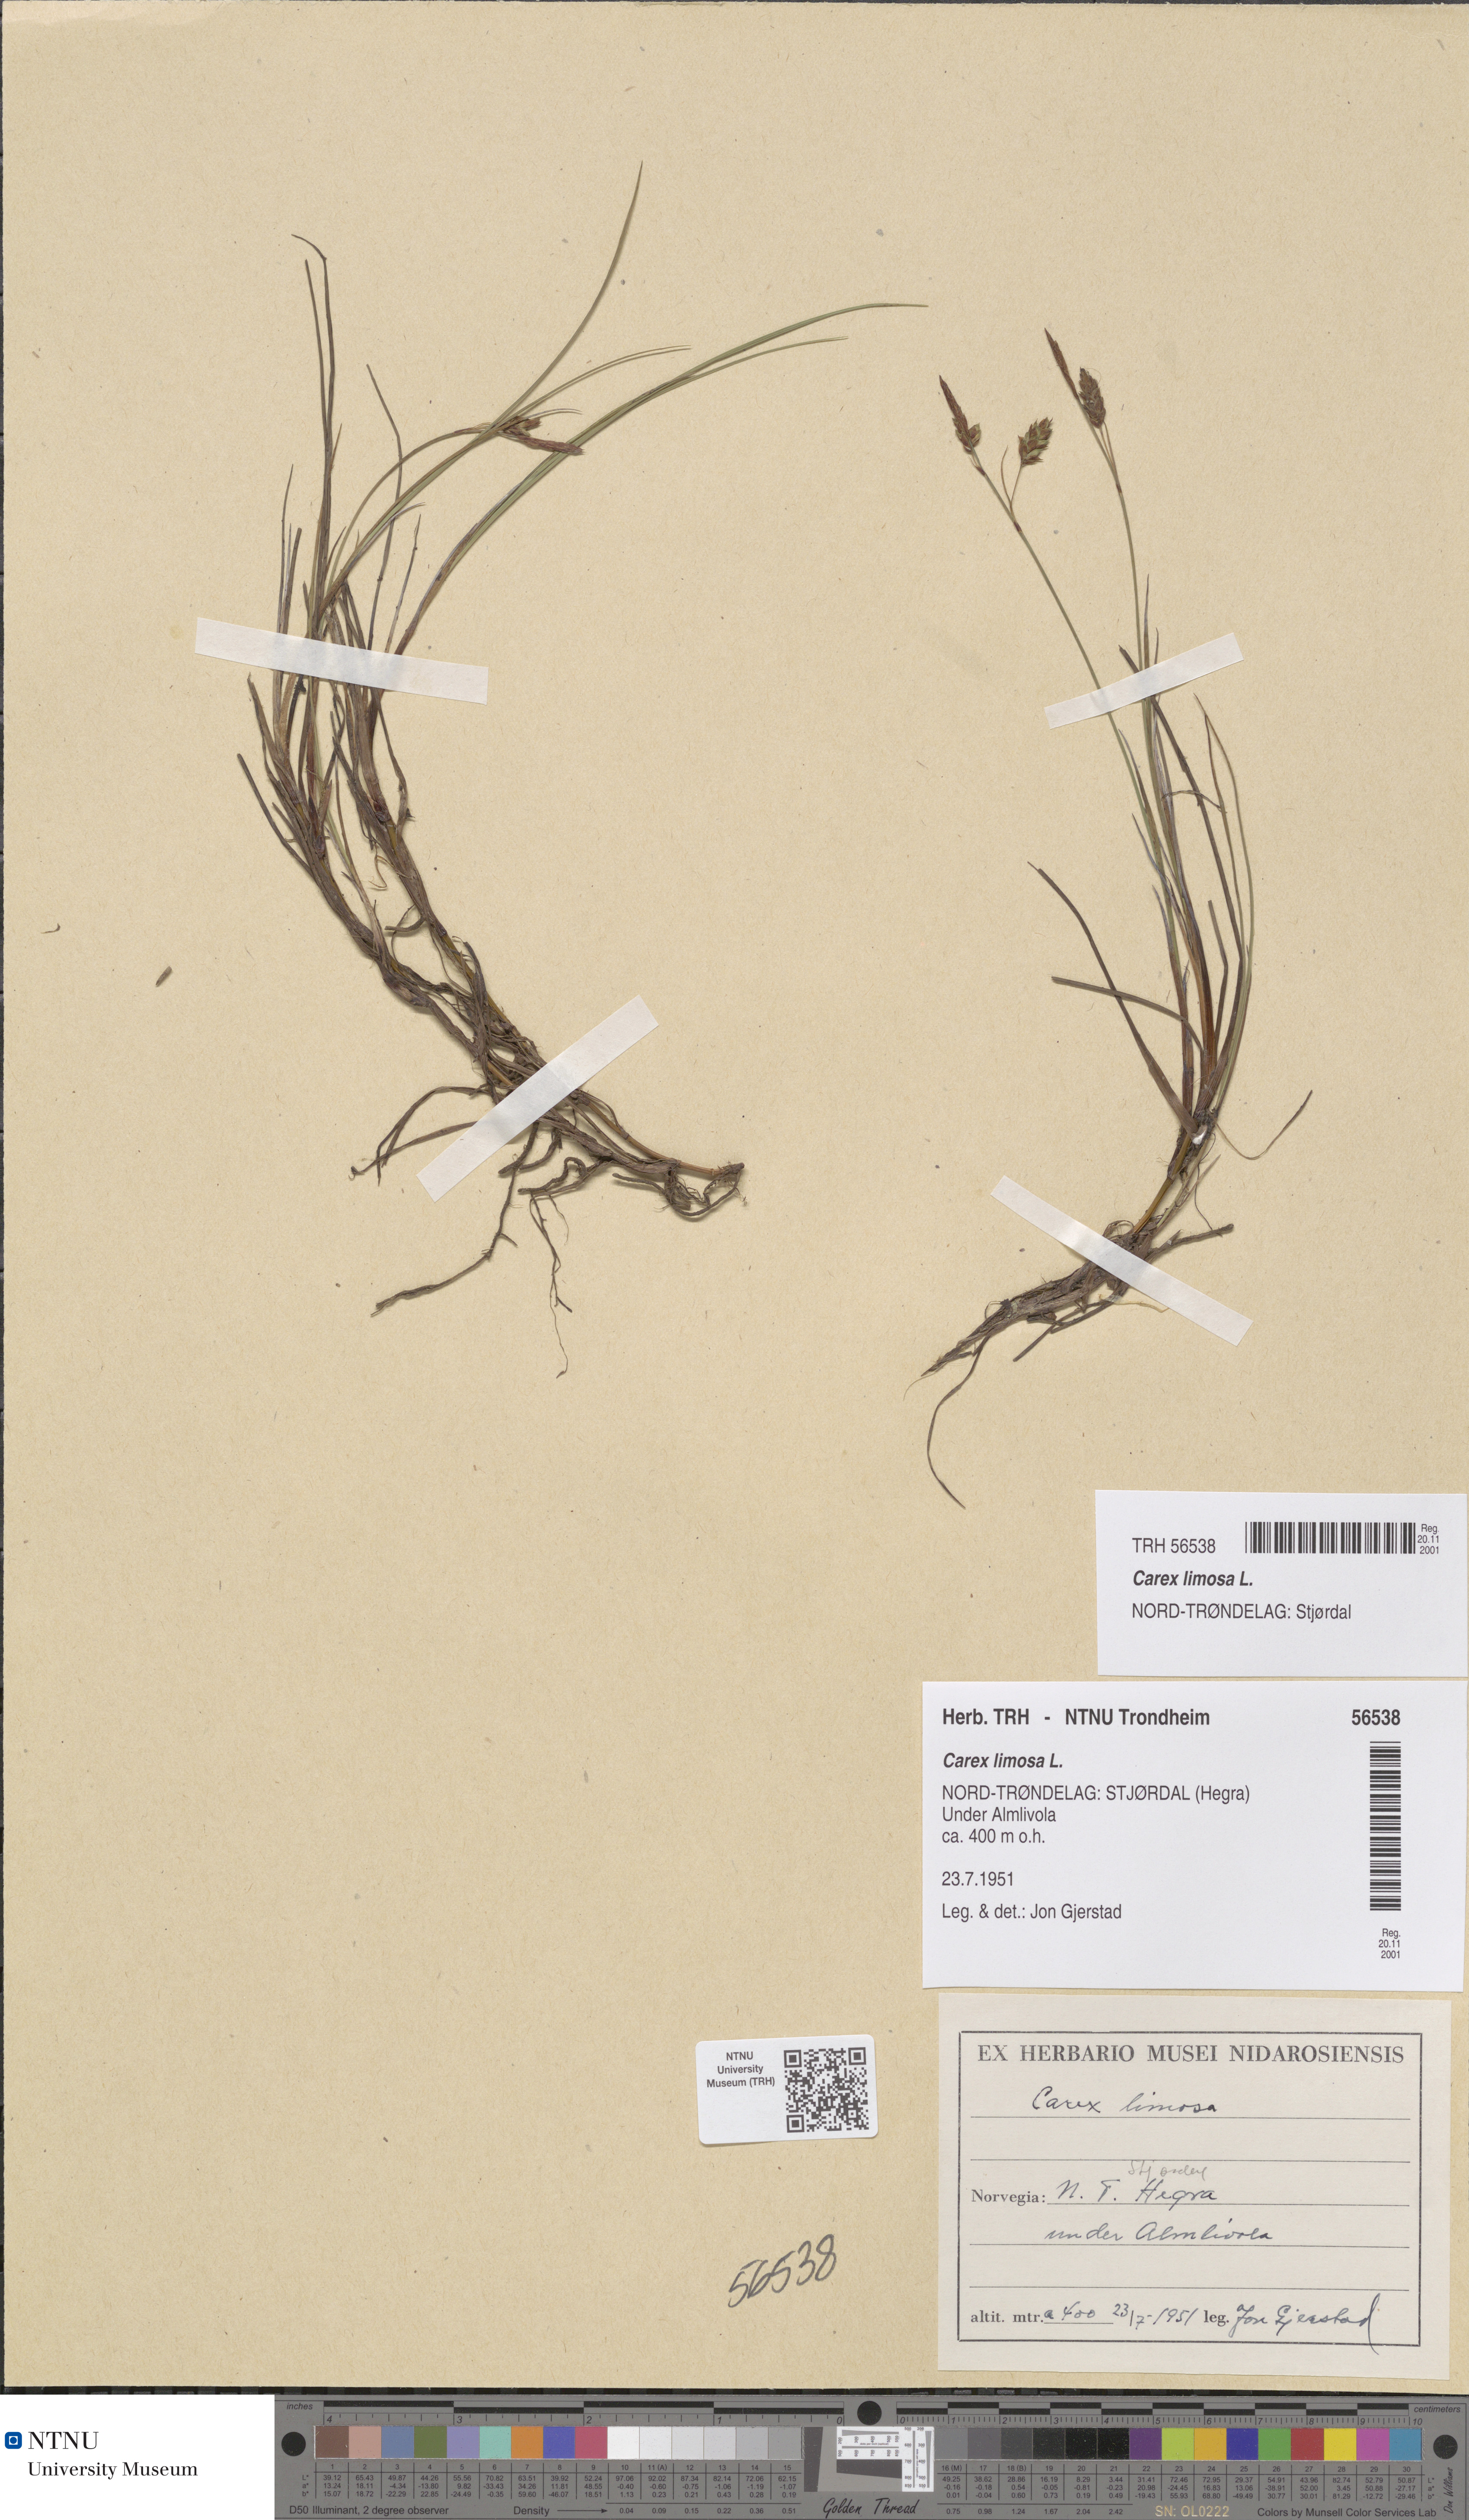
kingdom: Plantae
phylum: Tracheophyta
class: Liliopsida
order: Poales
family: Cyperaceae
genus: Carex
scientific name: Carex limosa
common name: Bog sedge
